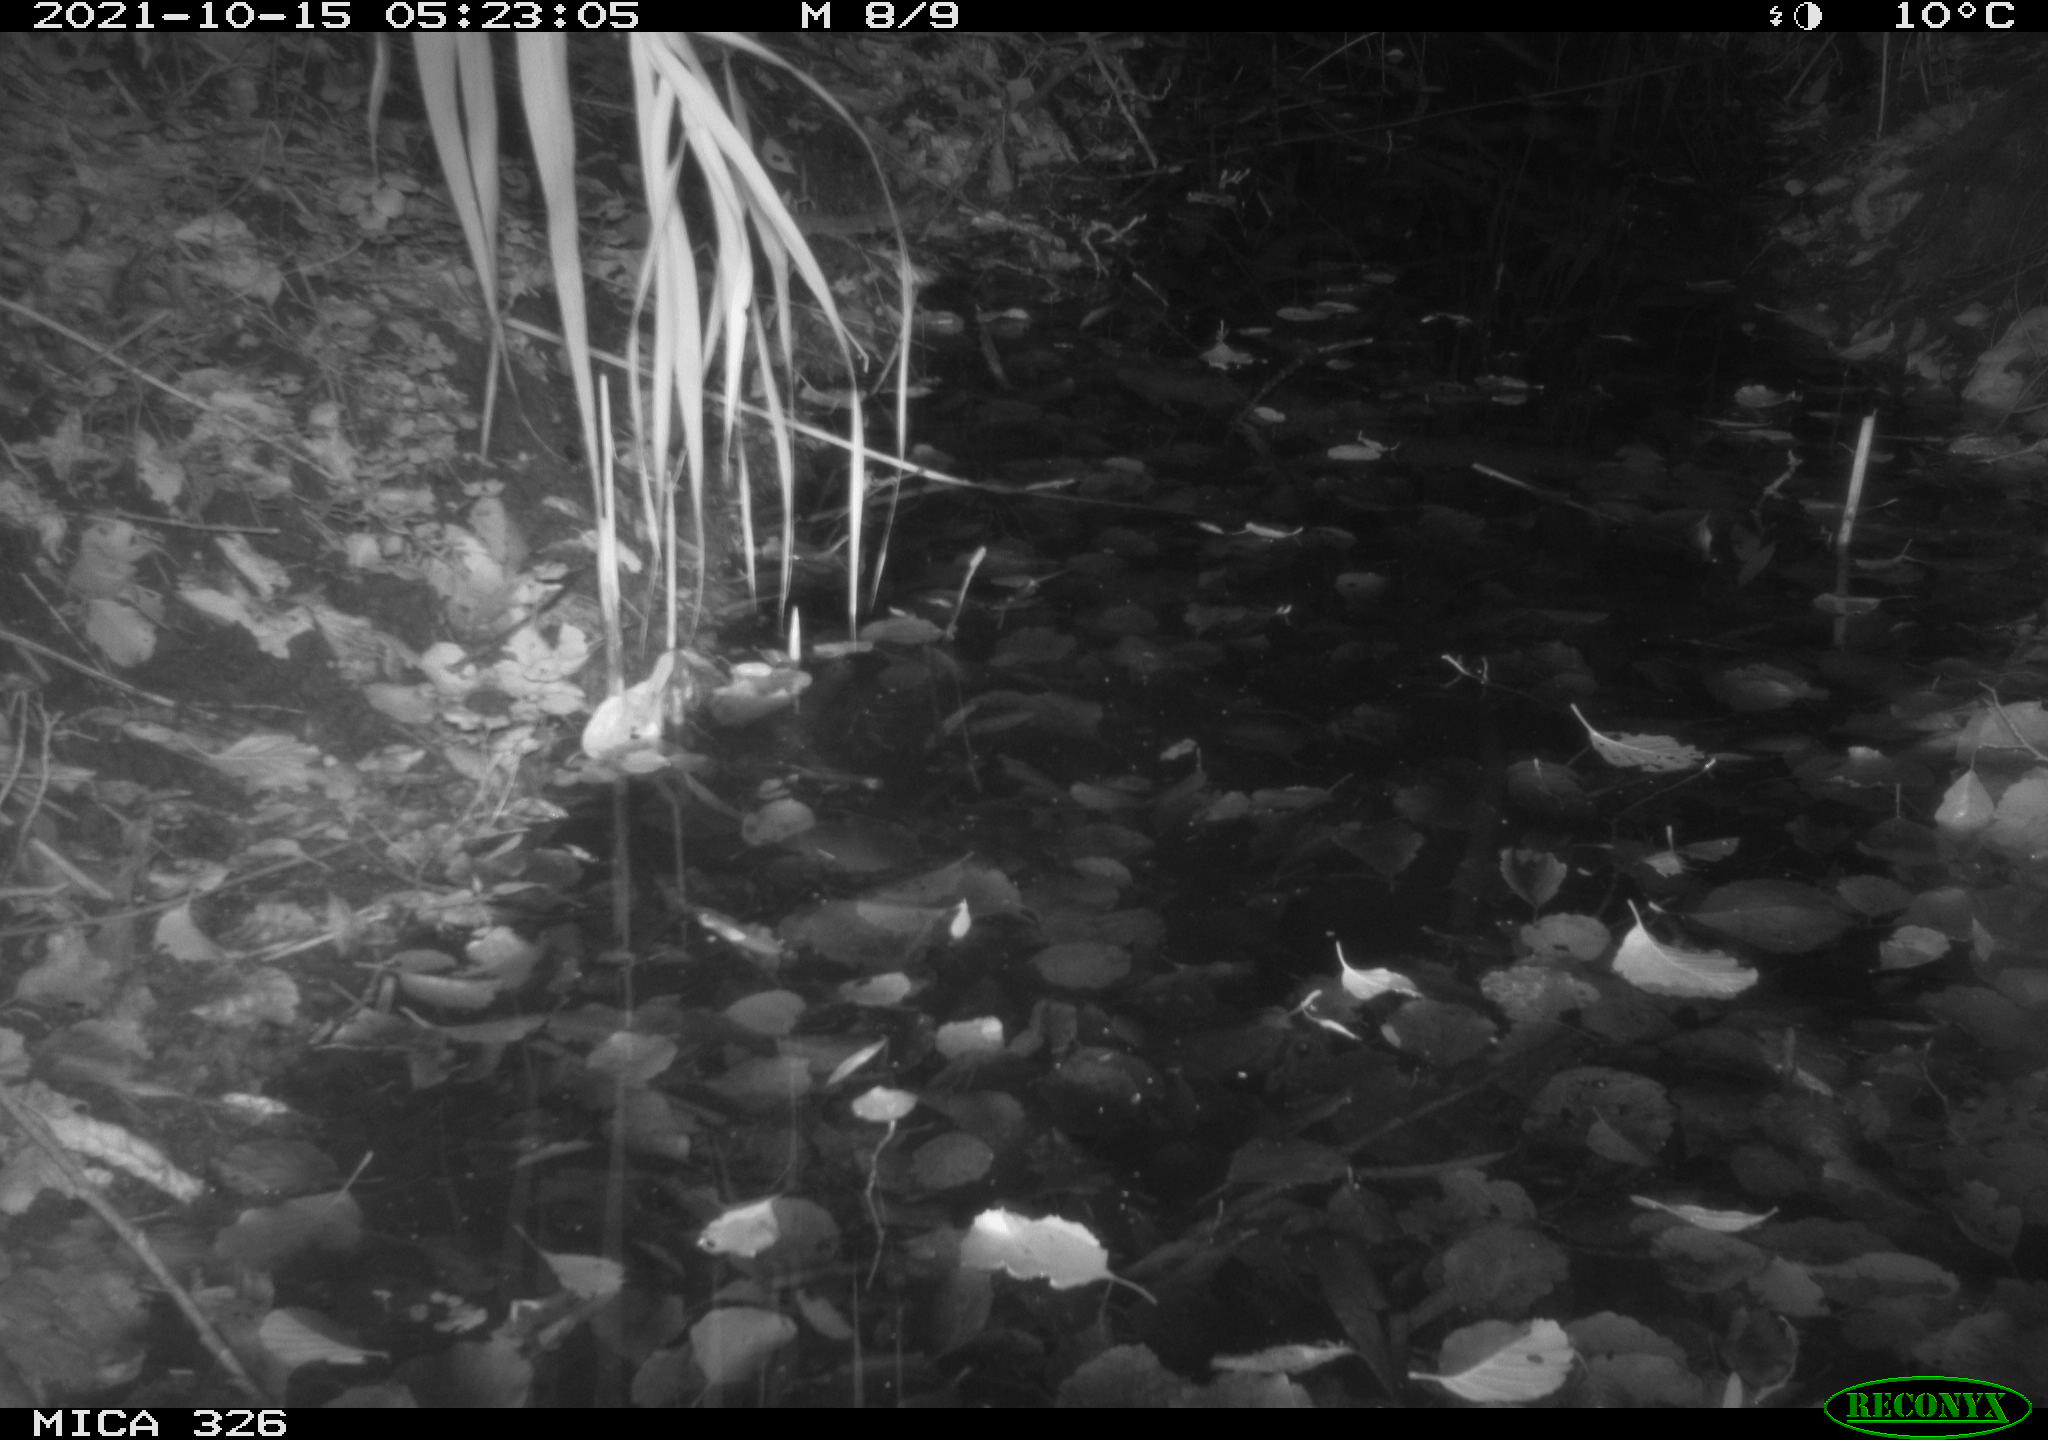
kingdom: Animalia
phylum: Chordata
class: Mammalia
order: Rodentia
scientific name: Rodentia
